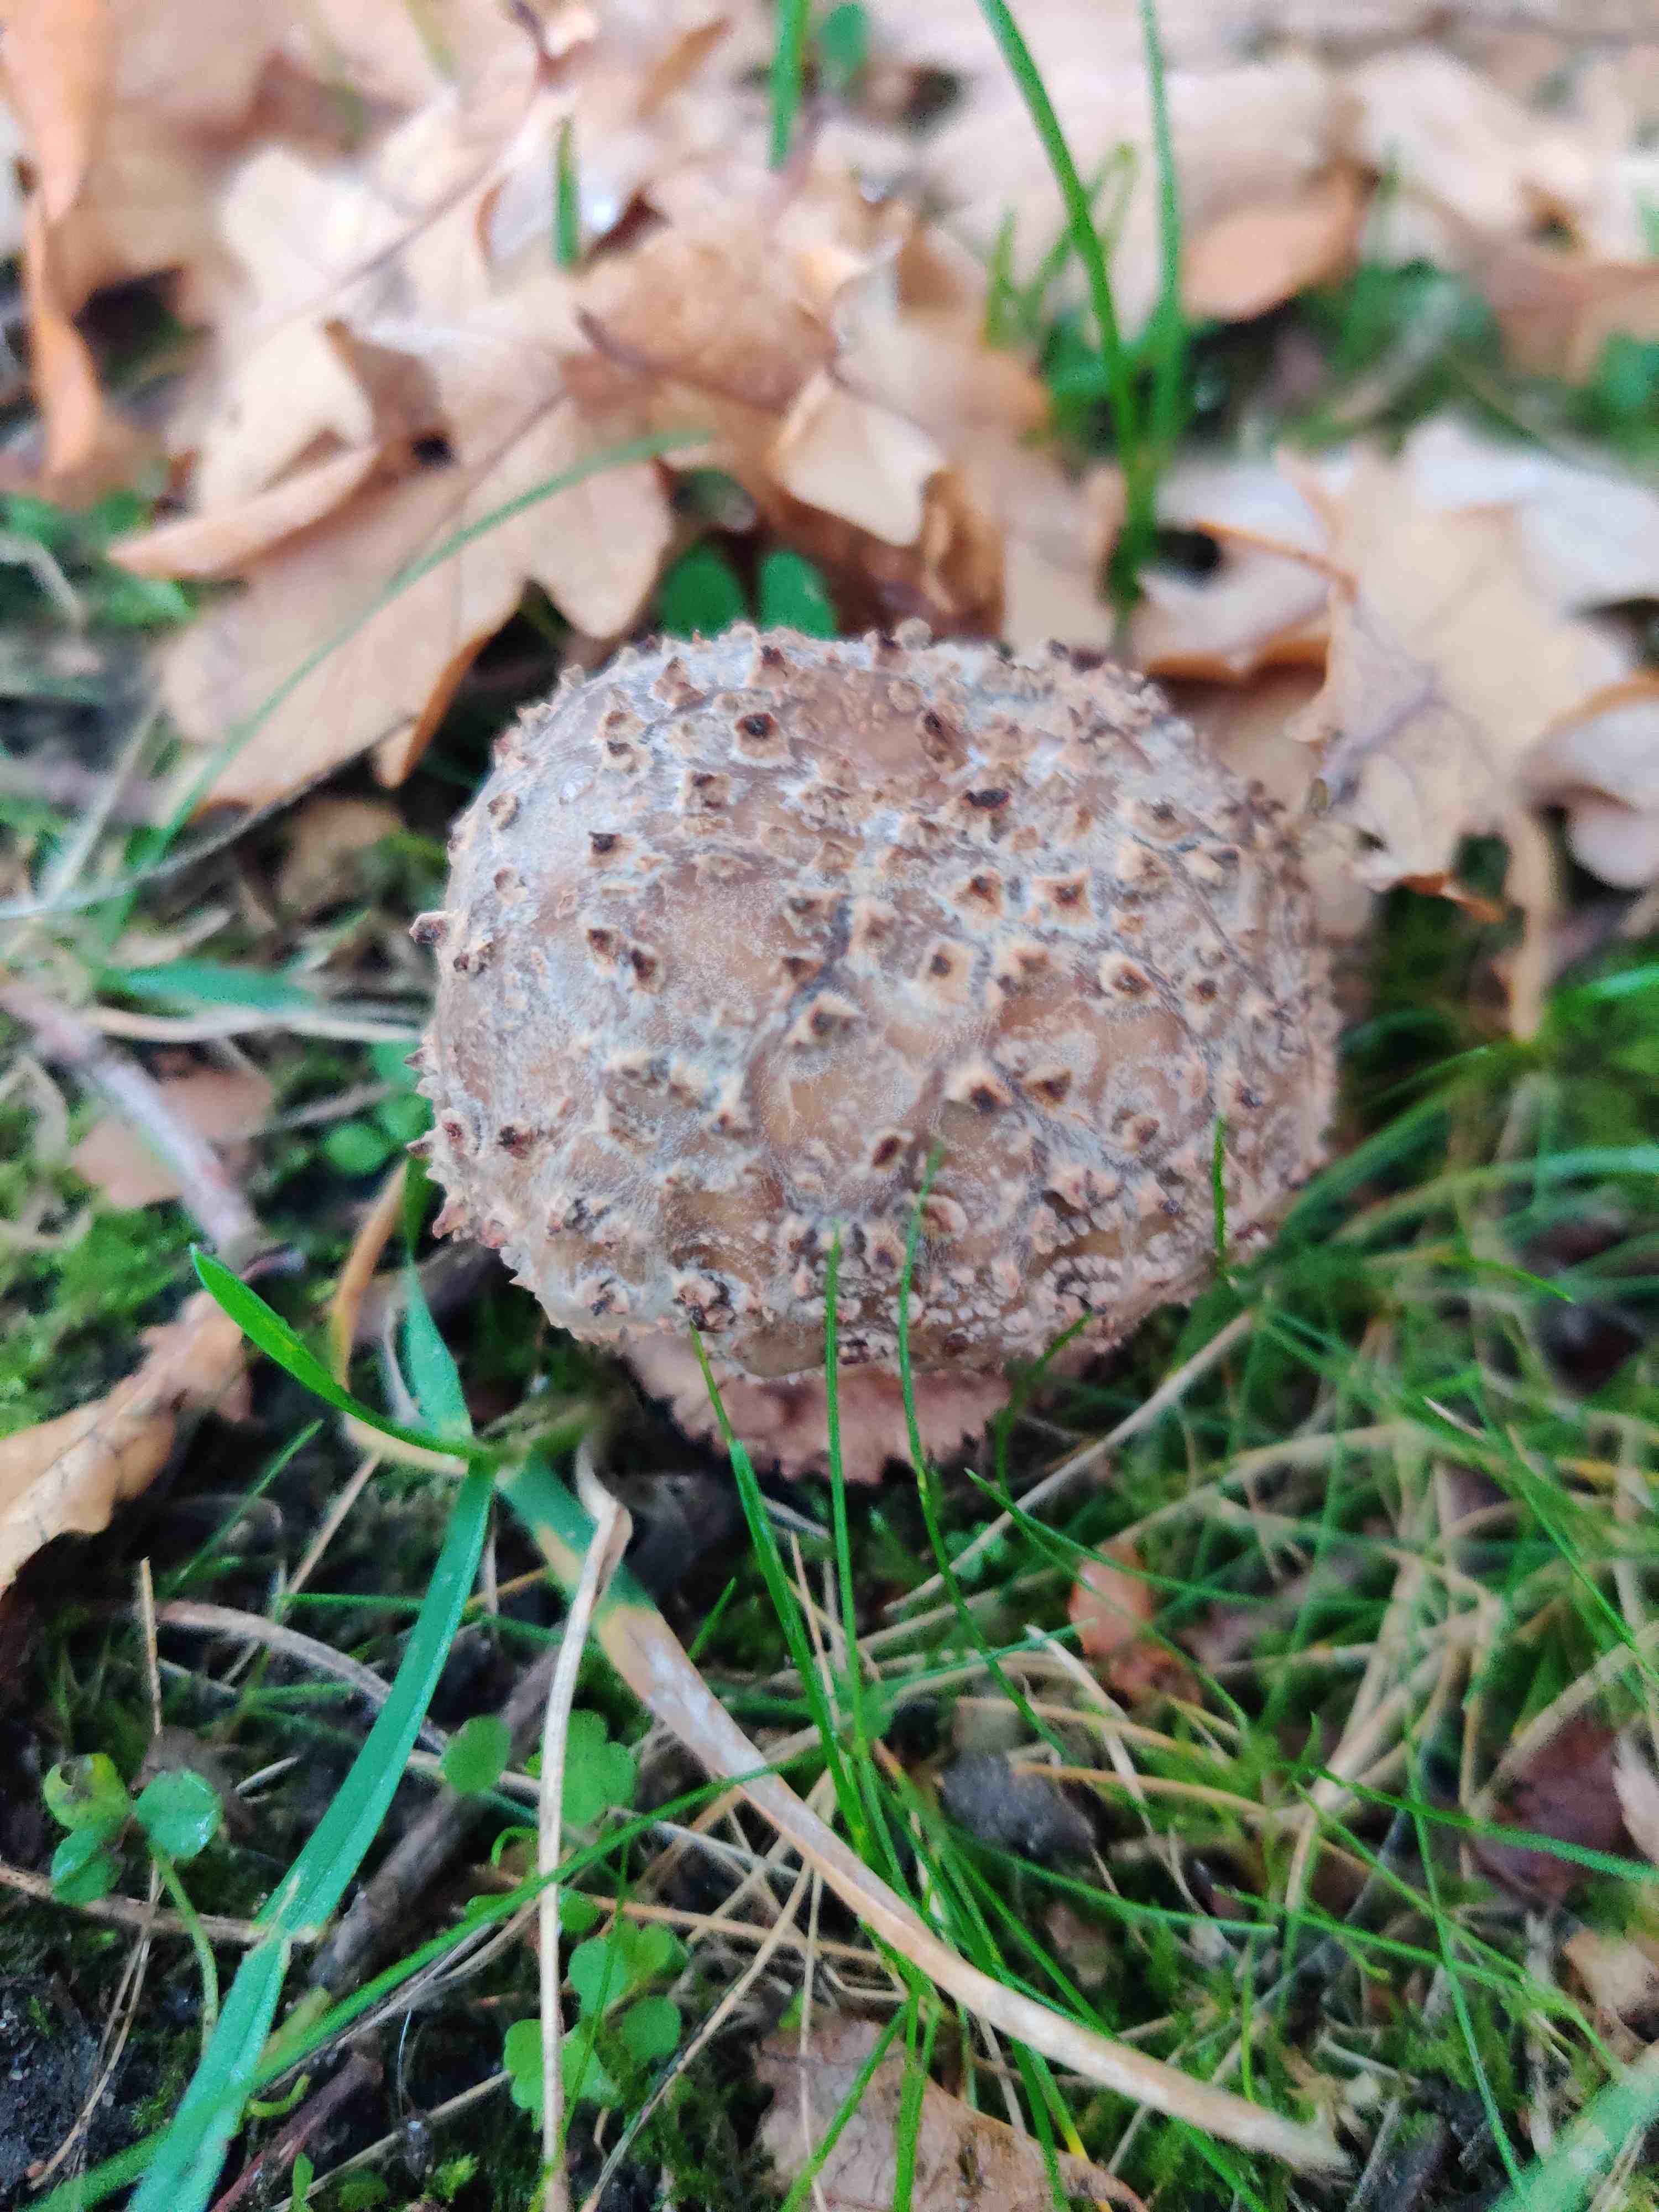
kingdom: Fungi
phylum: Basidiomycota
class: Agaricomycetes
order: Agaricales
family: Amanitaceae
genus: Amanita
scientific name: Amanita rubescens
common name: rødmende fluesvamp
